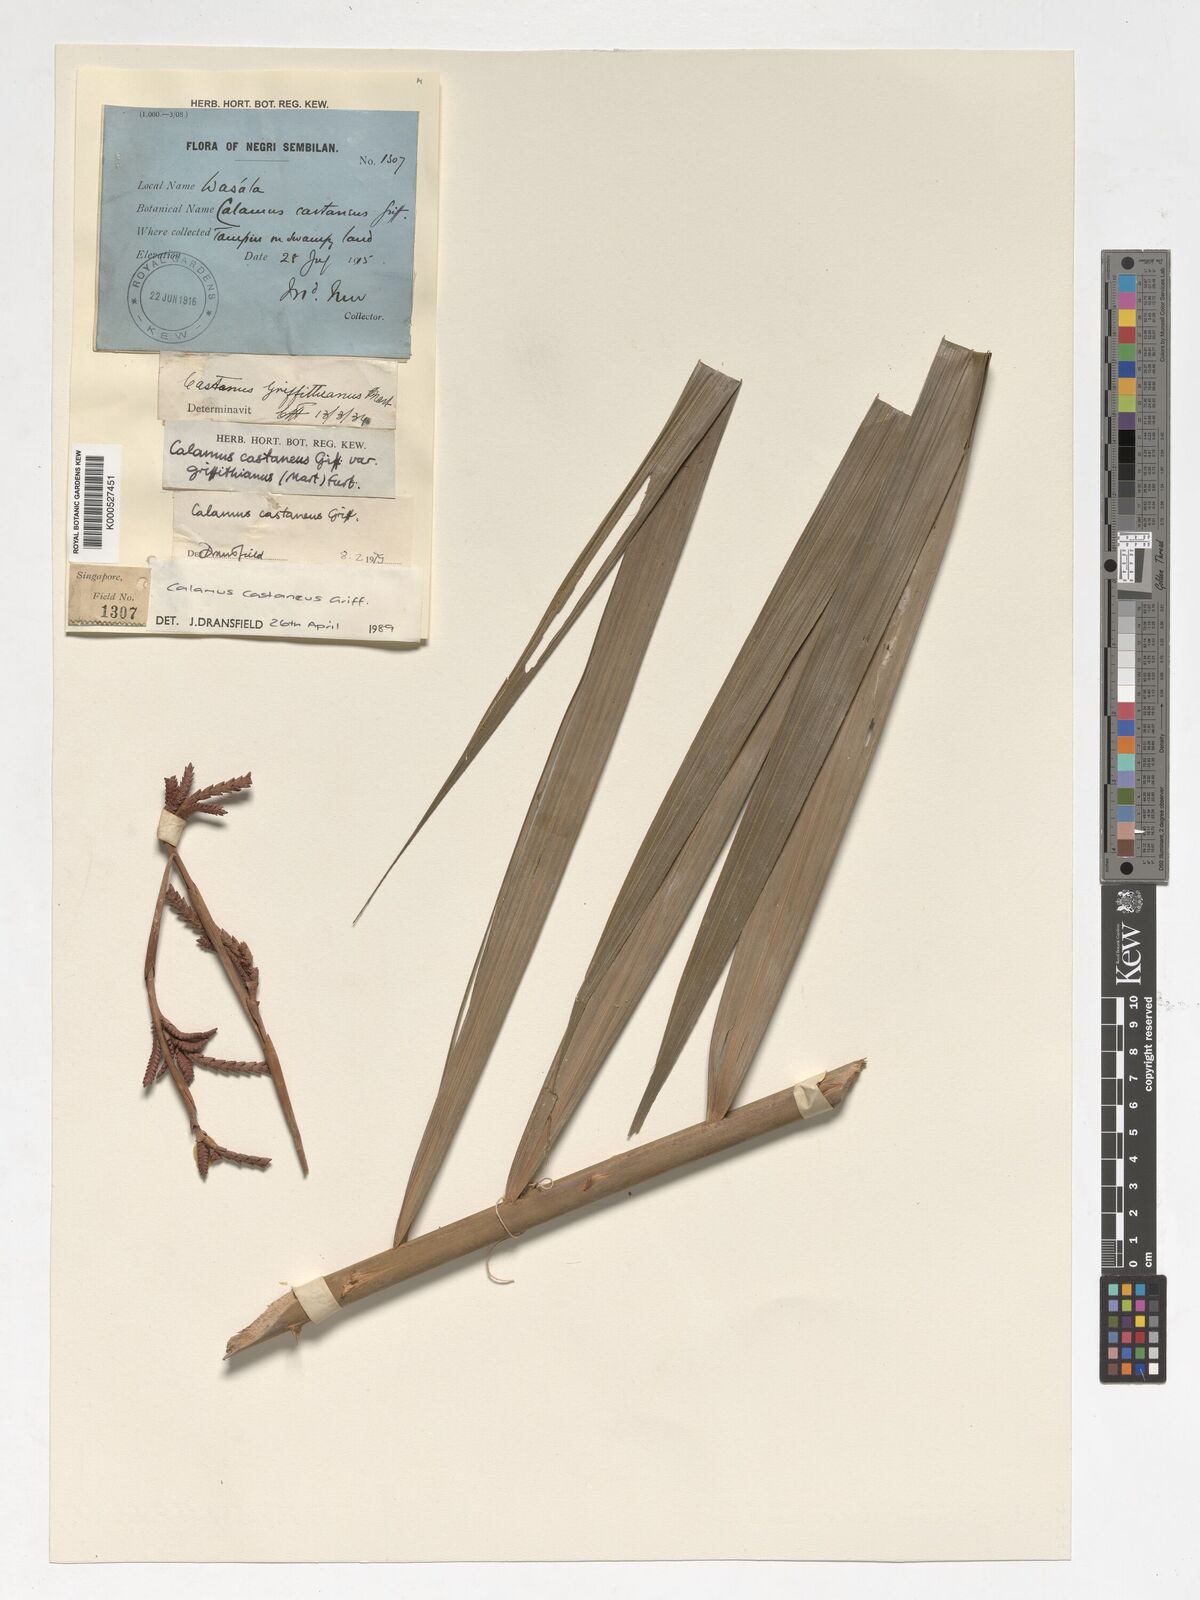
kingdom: Plantae
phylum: Tracheophyta
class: Liliopsida
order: Arecales
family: Arecaceae
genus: Calamus
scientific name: Calamus castaneus
